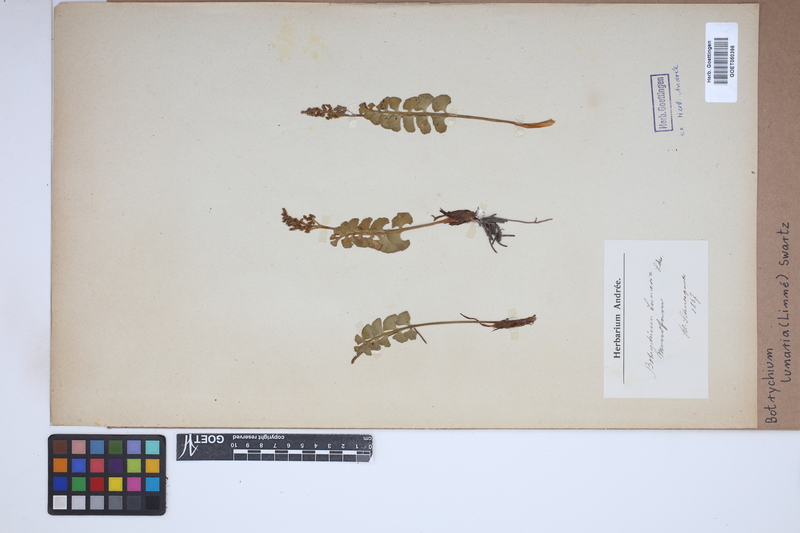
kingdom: Plantae
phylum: Tracheophyta
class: Polypodiopsida
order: Ophioglossales
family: Ophioglossaceae
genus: Botrychium
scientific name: Botrychium lunaria
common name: Moonwort
